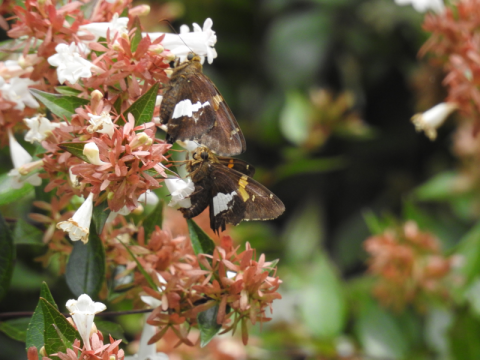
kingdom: Animalia
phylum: Arthropoda
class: Insecta
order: Lepidoptera
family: Hesperiidae
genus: Epargyreus
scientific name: Epargyreus clarus
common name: Silver-spotted Skipper
